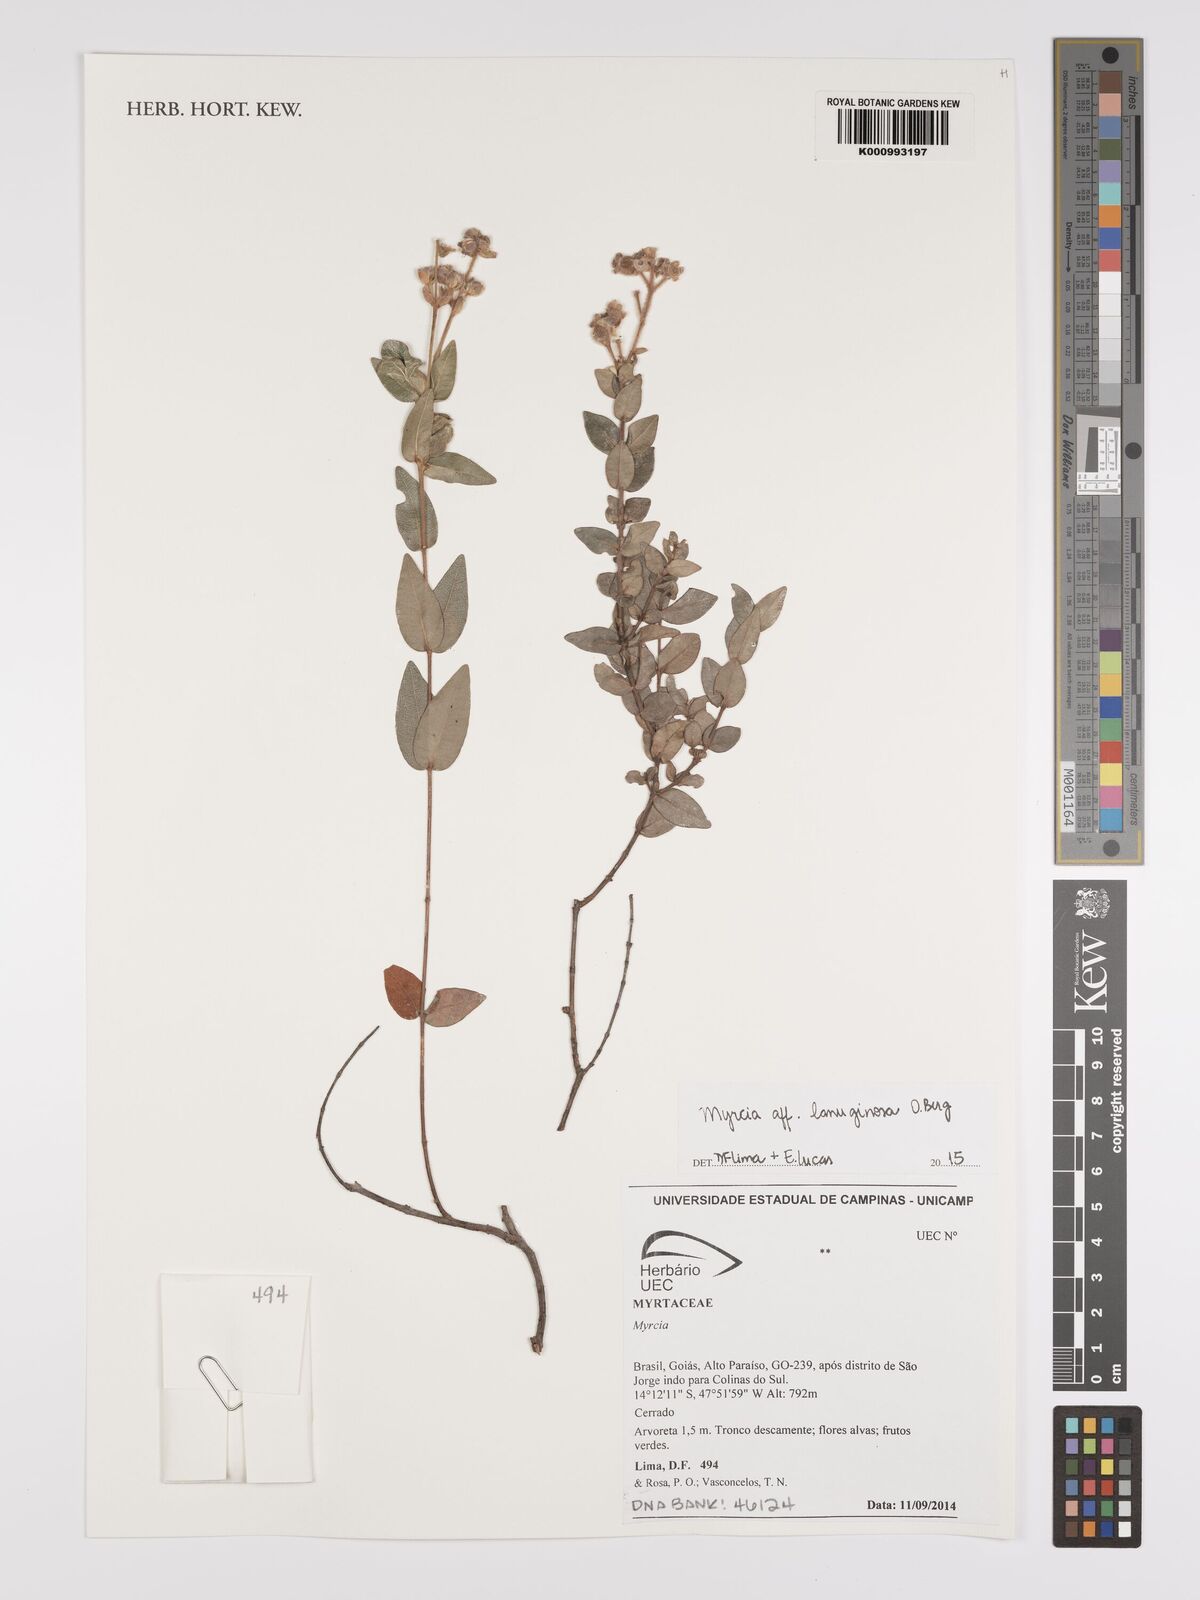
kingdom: Plantae
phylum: Tracheophyta
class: Magnoliopsida
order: Myrtales
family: Myrtaceae
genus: Myrcia
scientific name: Myrcia lanuginosa
